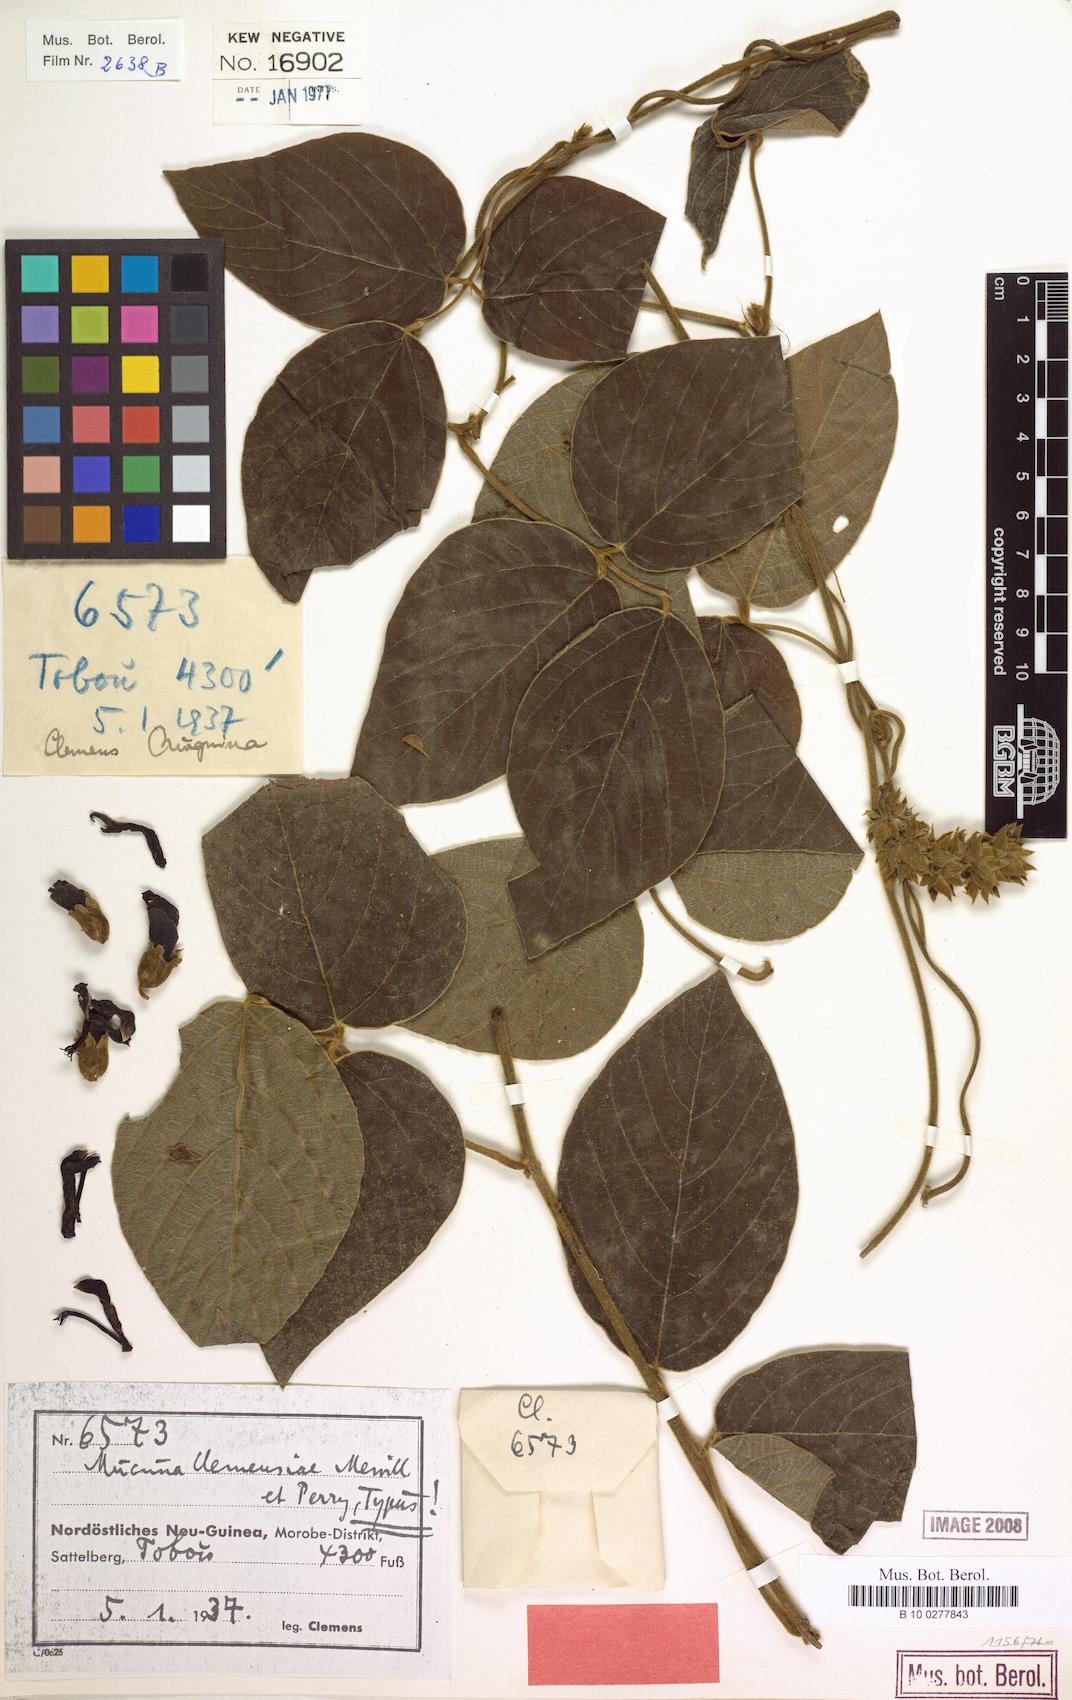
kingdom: Plantae
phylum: Tracheophyta
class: Magnoliopsida
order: Fabales
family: Fabaceae
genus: Mucuna
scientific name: Mucuna mollissima
